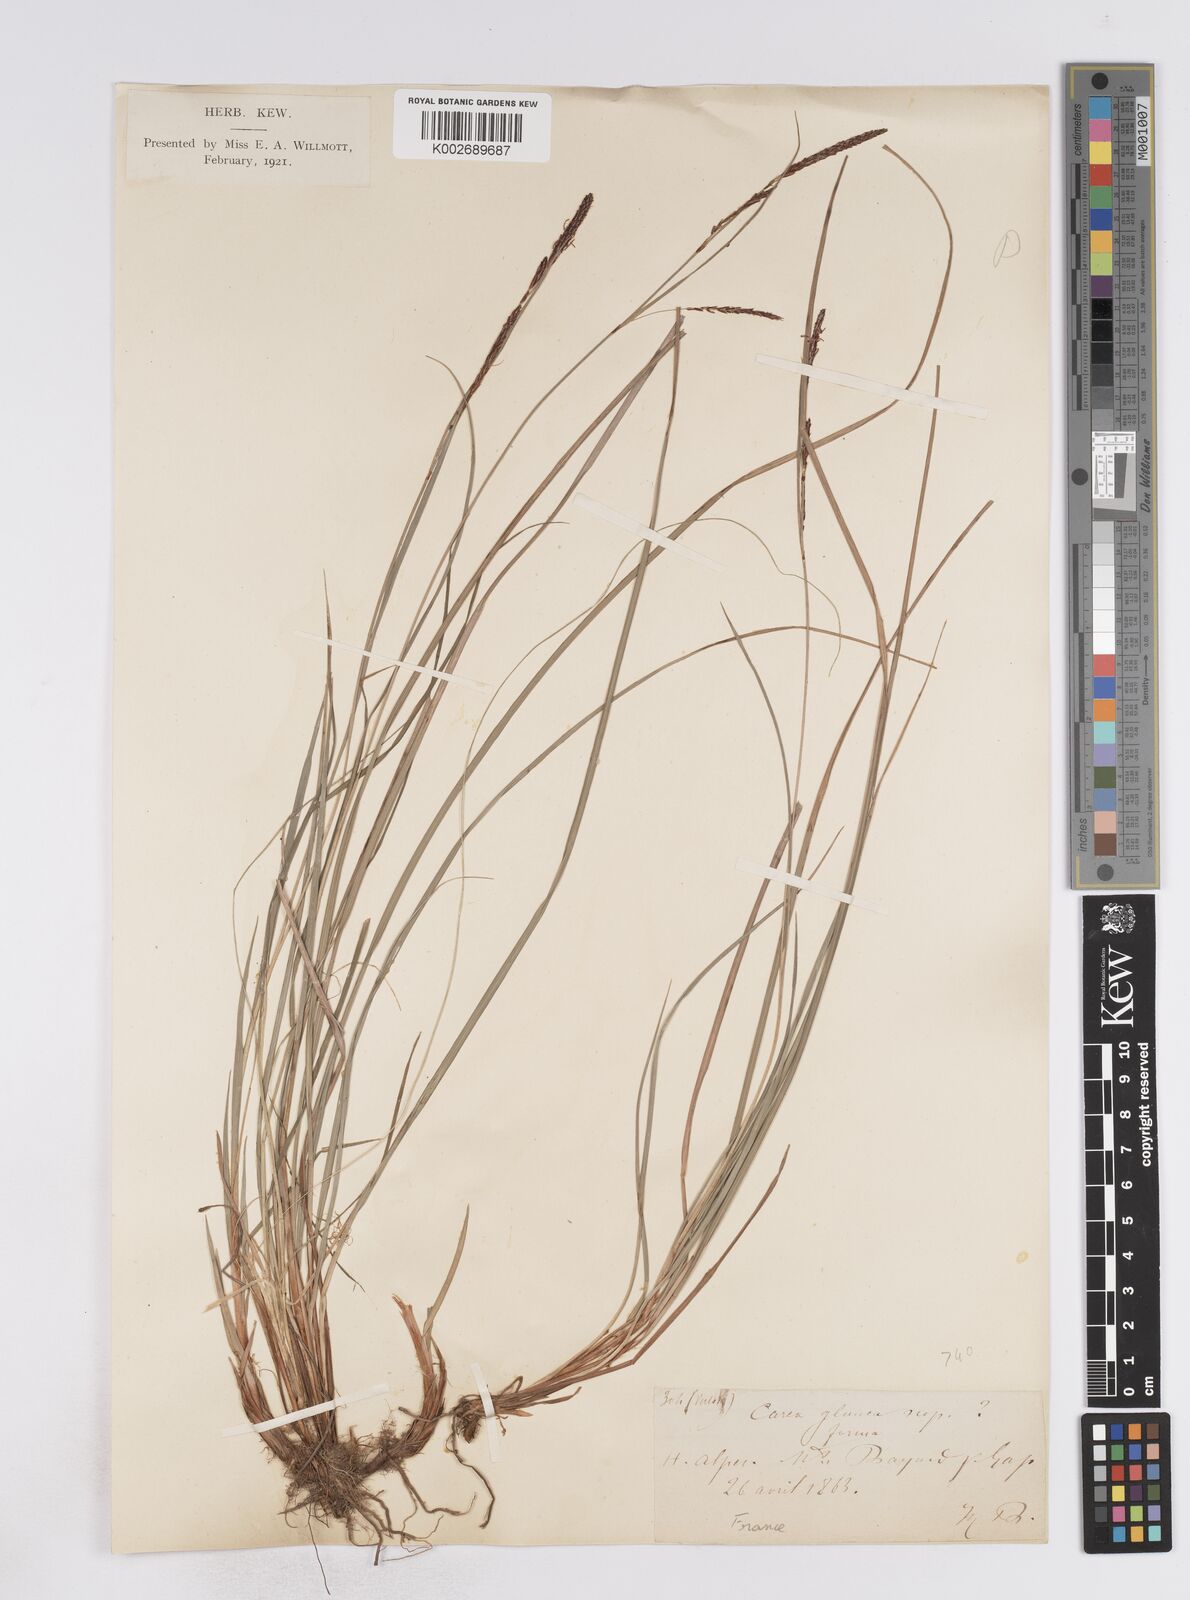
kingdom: Plantae
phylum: Tracheophyta
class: Liliopsida
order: Poales
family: Cyperaceae
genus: Carex
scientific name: Carex flacca
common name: Glaucous sedge
